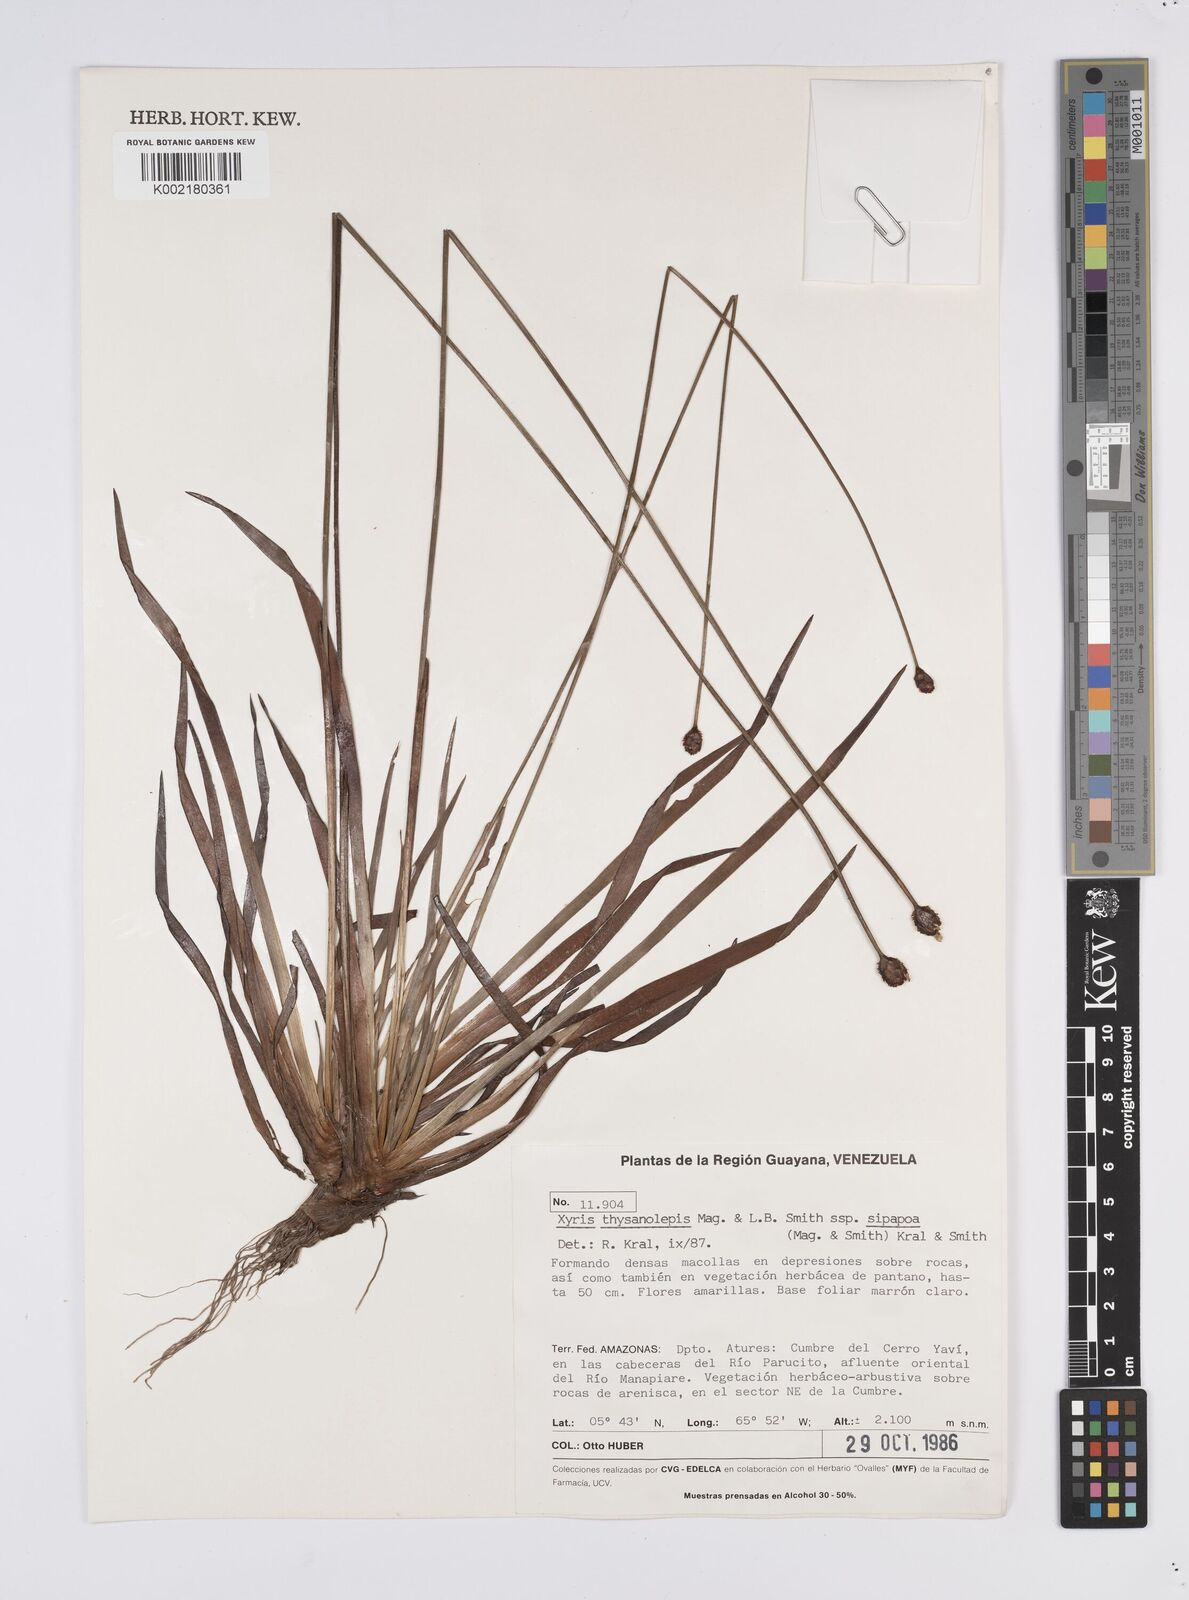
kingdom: Plantae
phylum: Tracheophyta
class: Liliopsida
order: Poales
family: Xyridaceae
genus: Xyris
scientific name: Xyris thysanolepis
